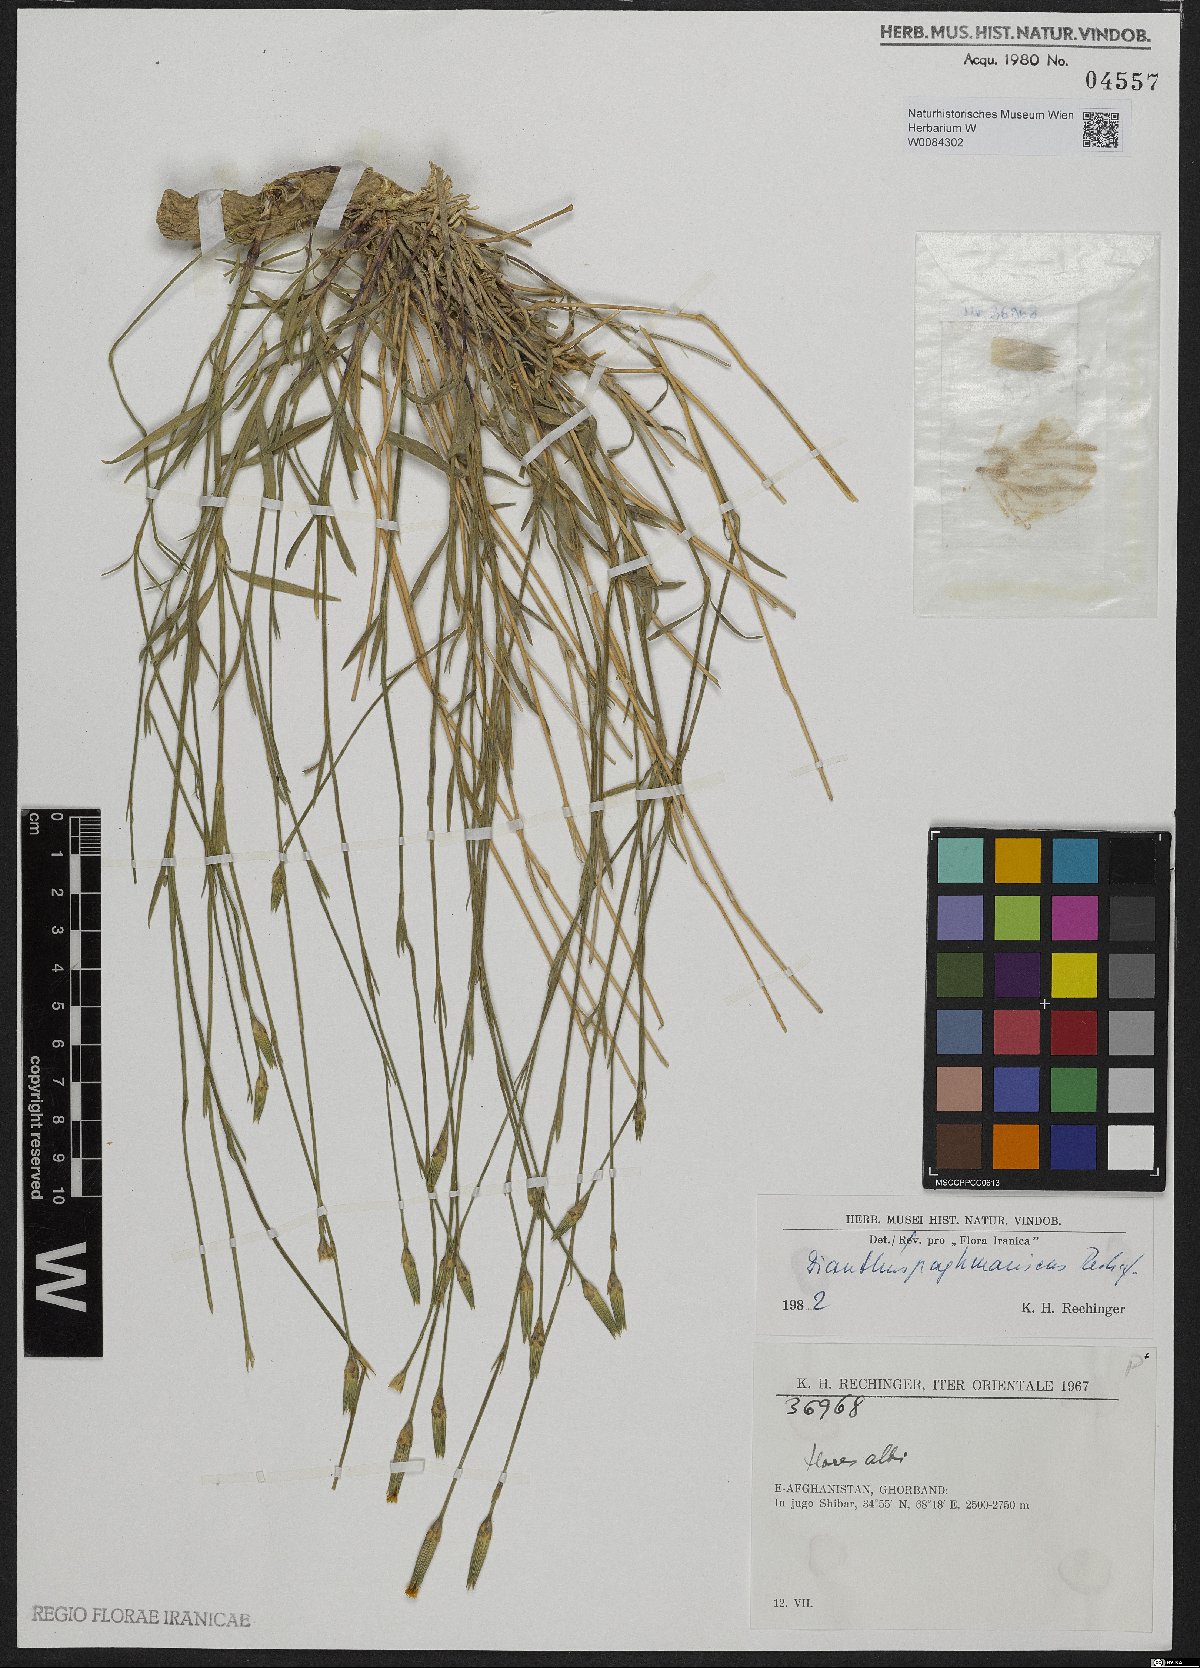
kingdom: Plantae
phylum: Tracheophyta
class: Magnoliopsida
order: Caryophyllales
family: Caryophyllaceae
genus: Dianthus
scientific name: Dianthus paghmanicus
